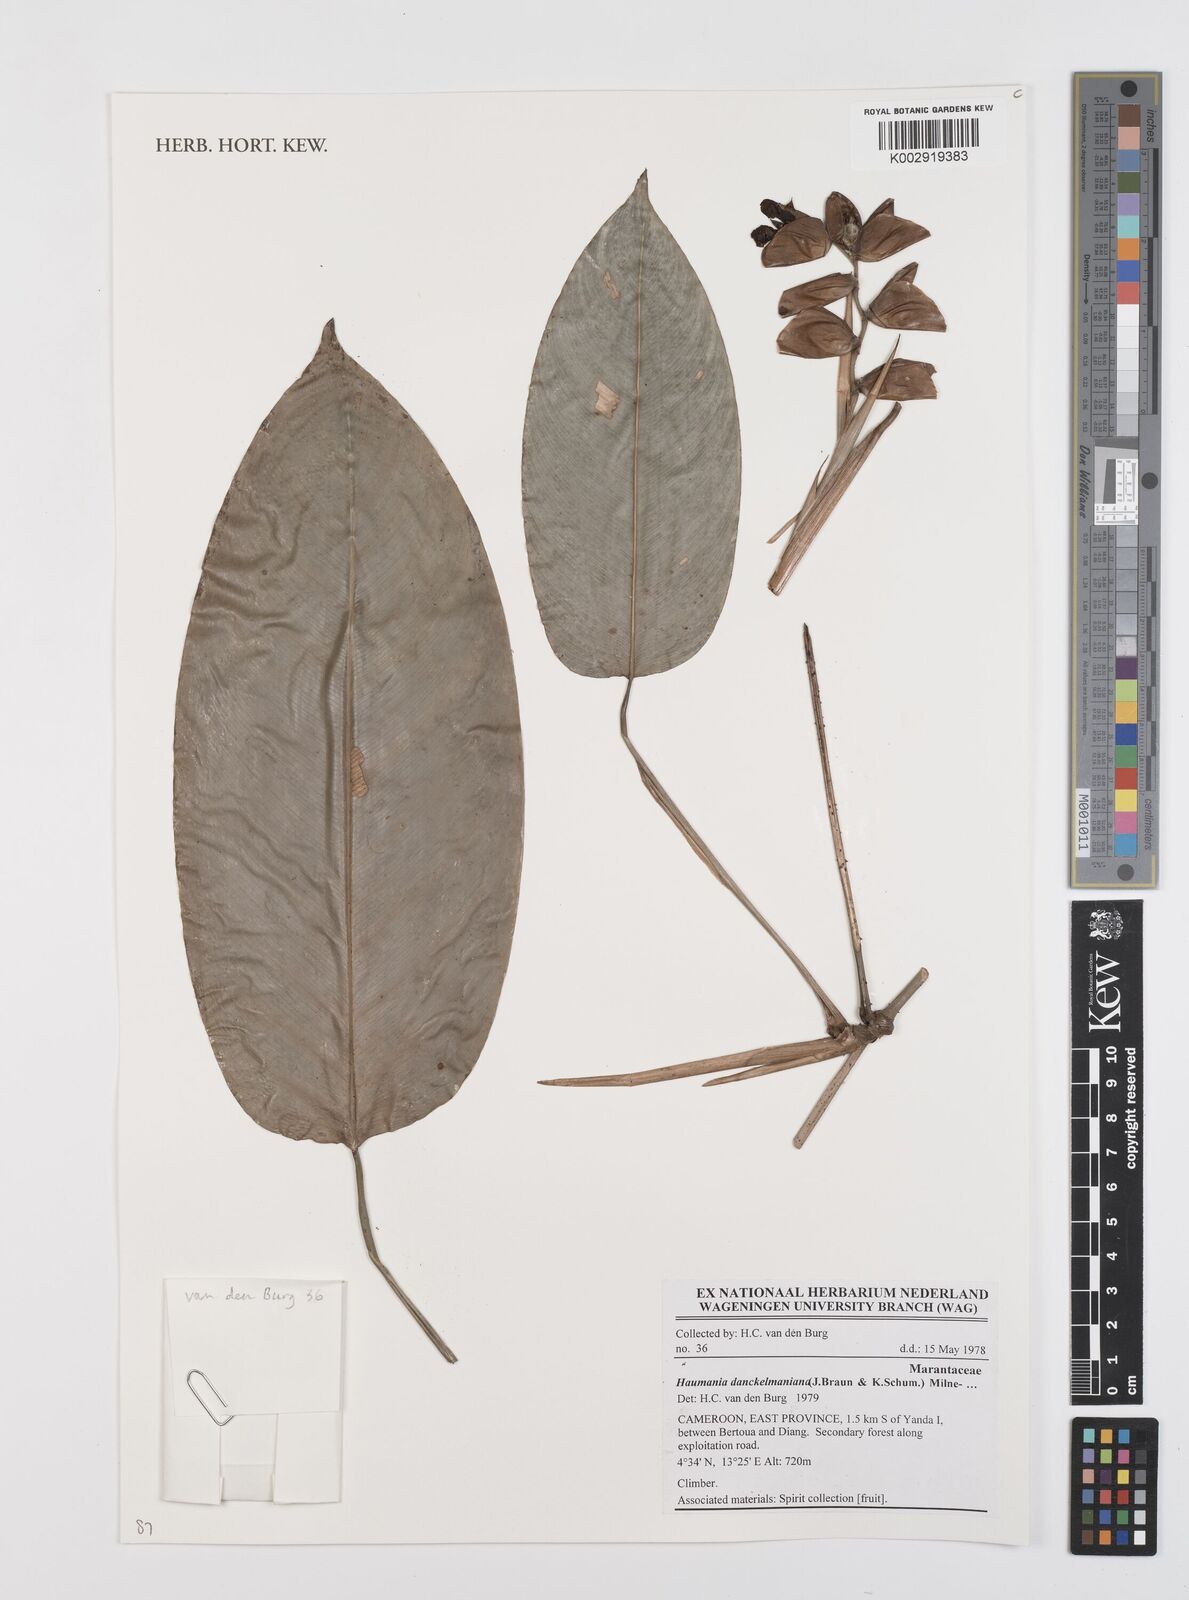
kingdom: Plantae
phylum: Tracheophyta
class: Liliopsida
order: Zingiberales
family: Marantaceae
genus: Haumania
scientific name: Haumania danckelmaniana
